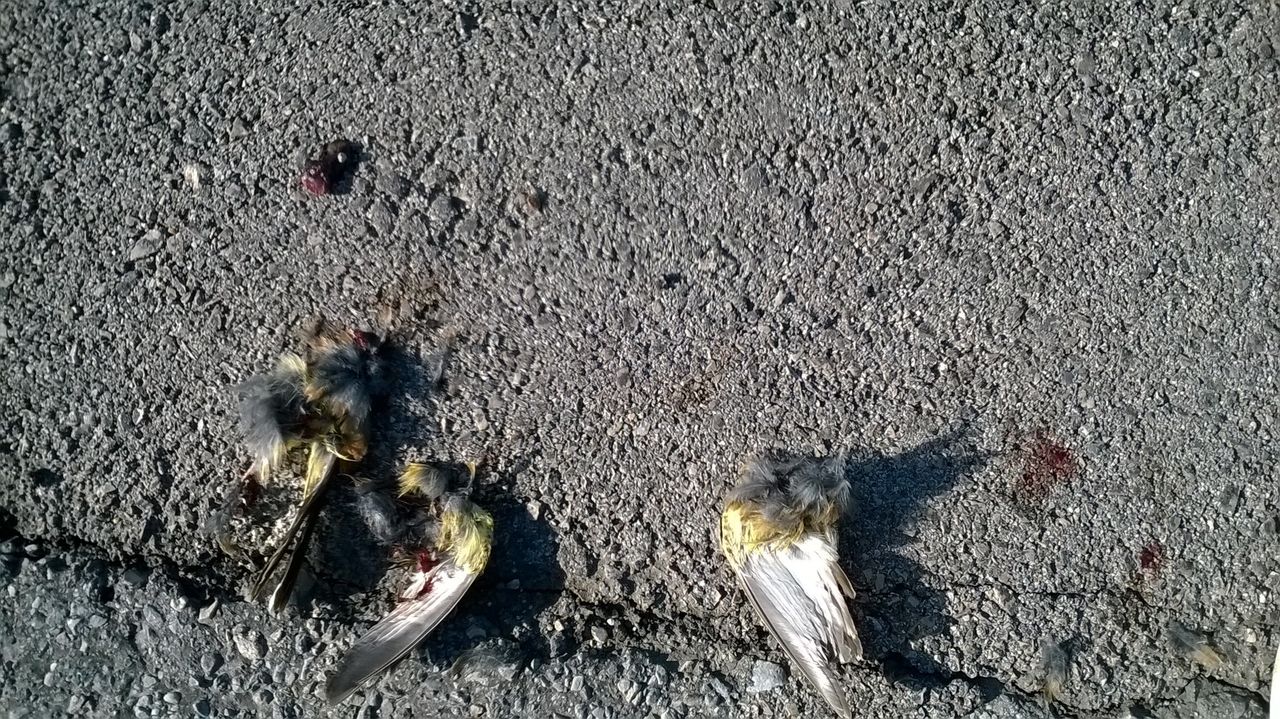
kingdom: Animalia
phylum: Chordata
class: Aves
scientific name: Aves
